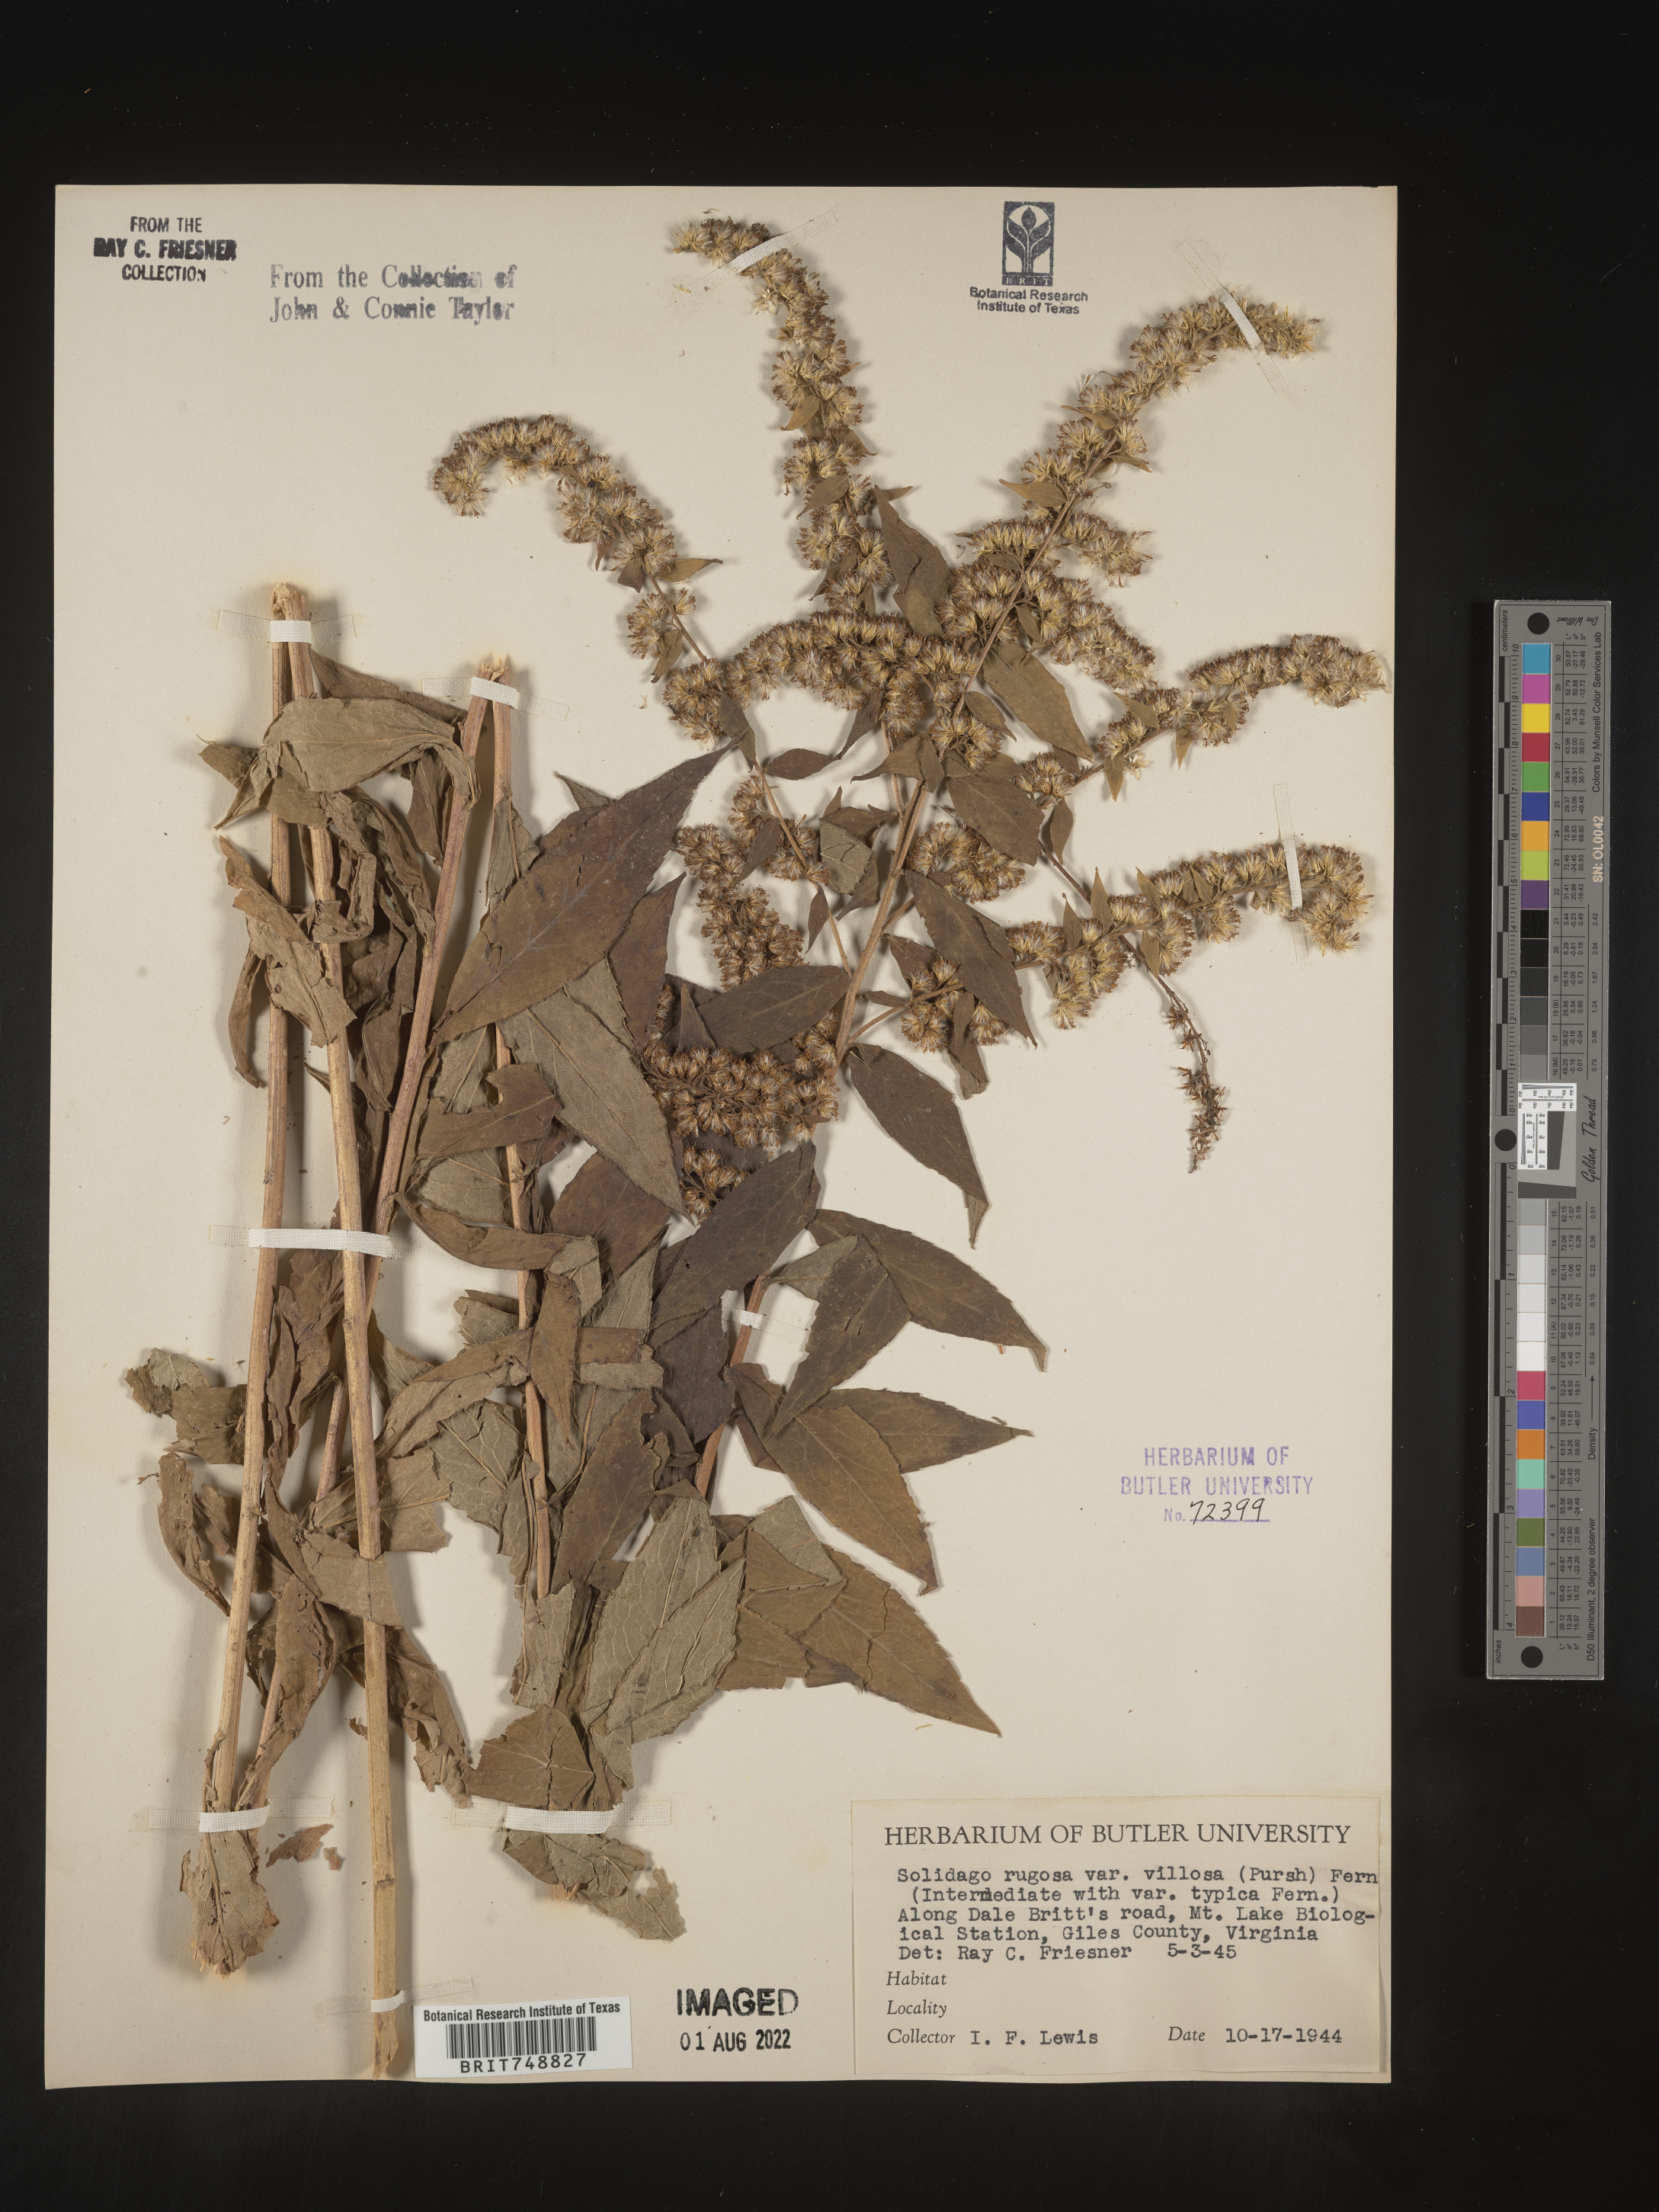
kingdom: Plantae
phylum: Tracheophyta
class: Magnoliopsida
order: Asterales
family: Asteraceae
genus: Solidago
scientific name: Solidago rugosa
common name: Rough-stemmed goldenrod
